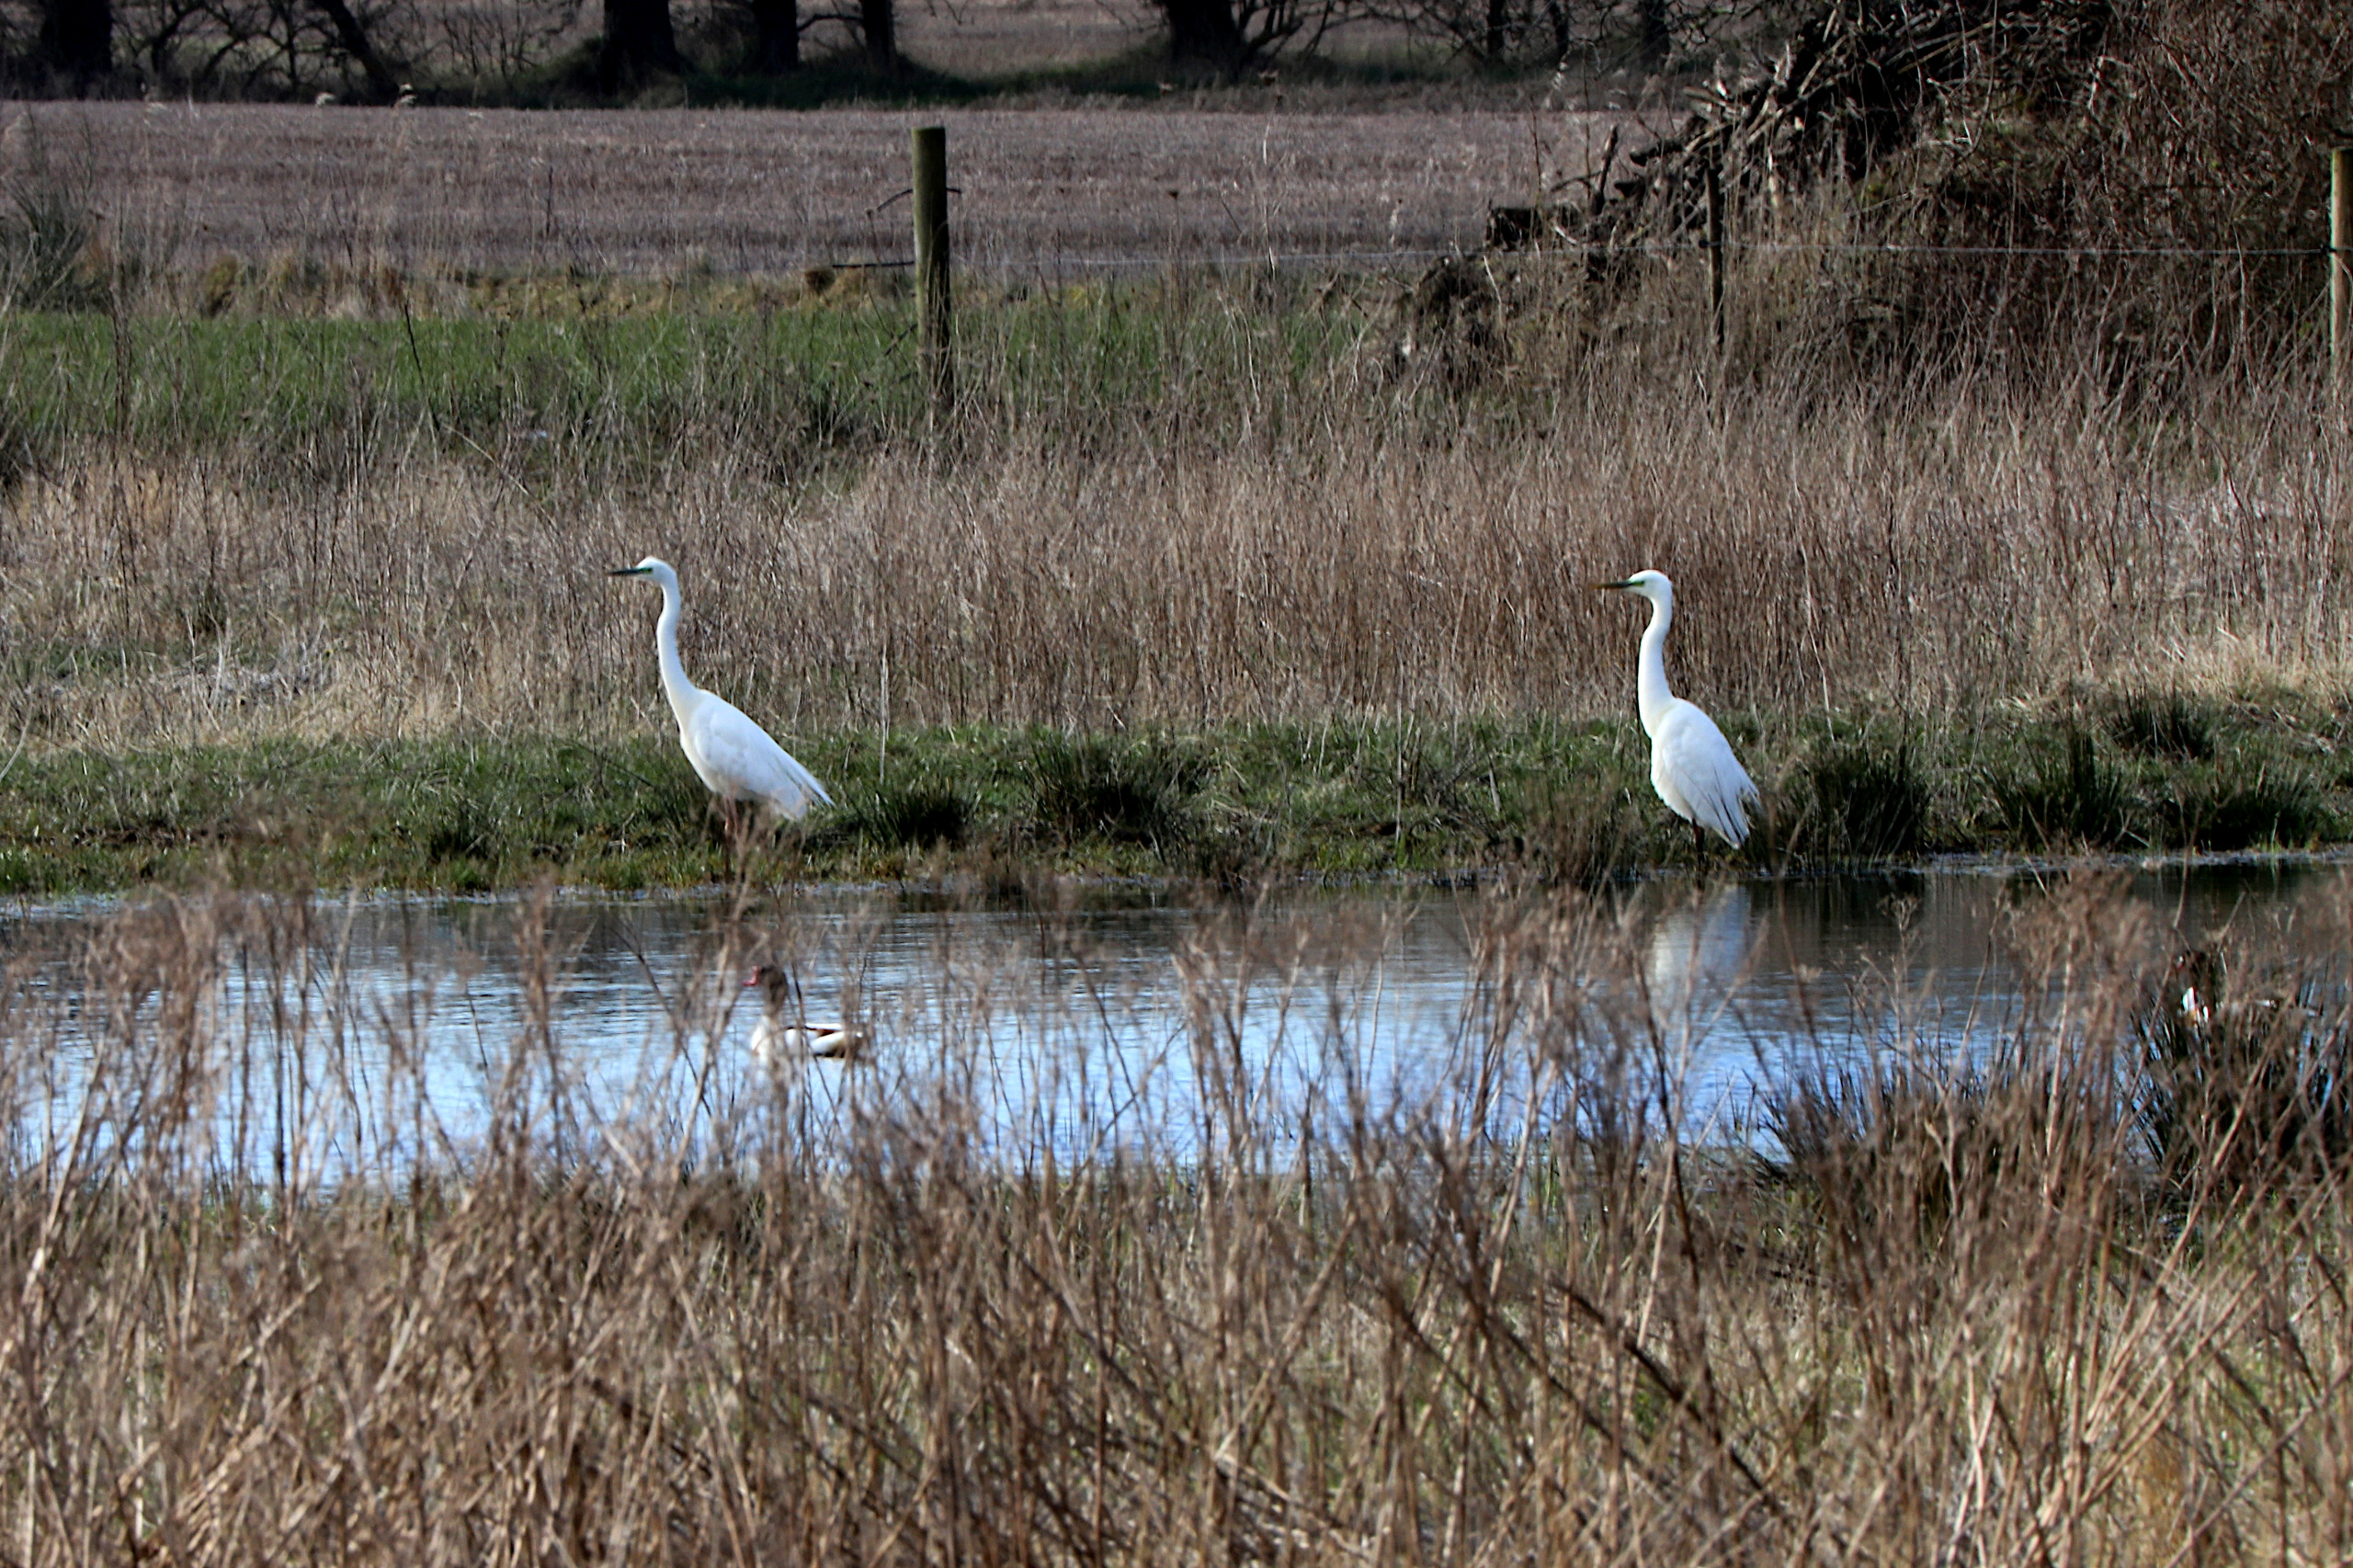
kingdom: Animalia
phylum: Chordata
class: Aves
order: Pelecaniformes
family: Ardeidae
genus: Ardea
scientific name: Ardea alba
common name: Sølvhejre
